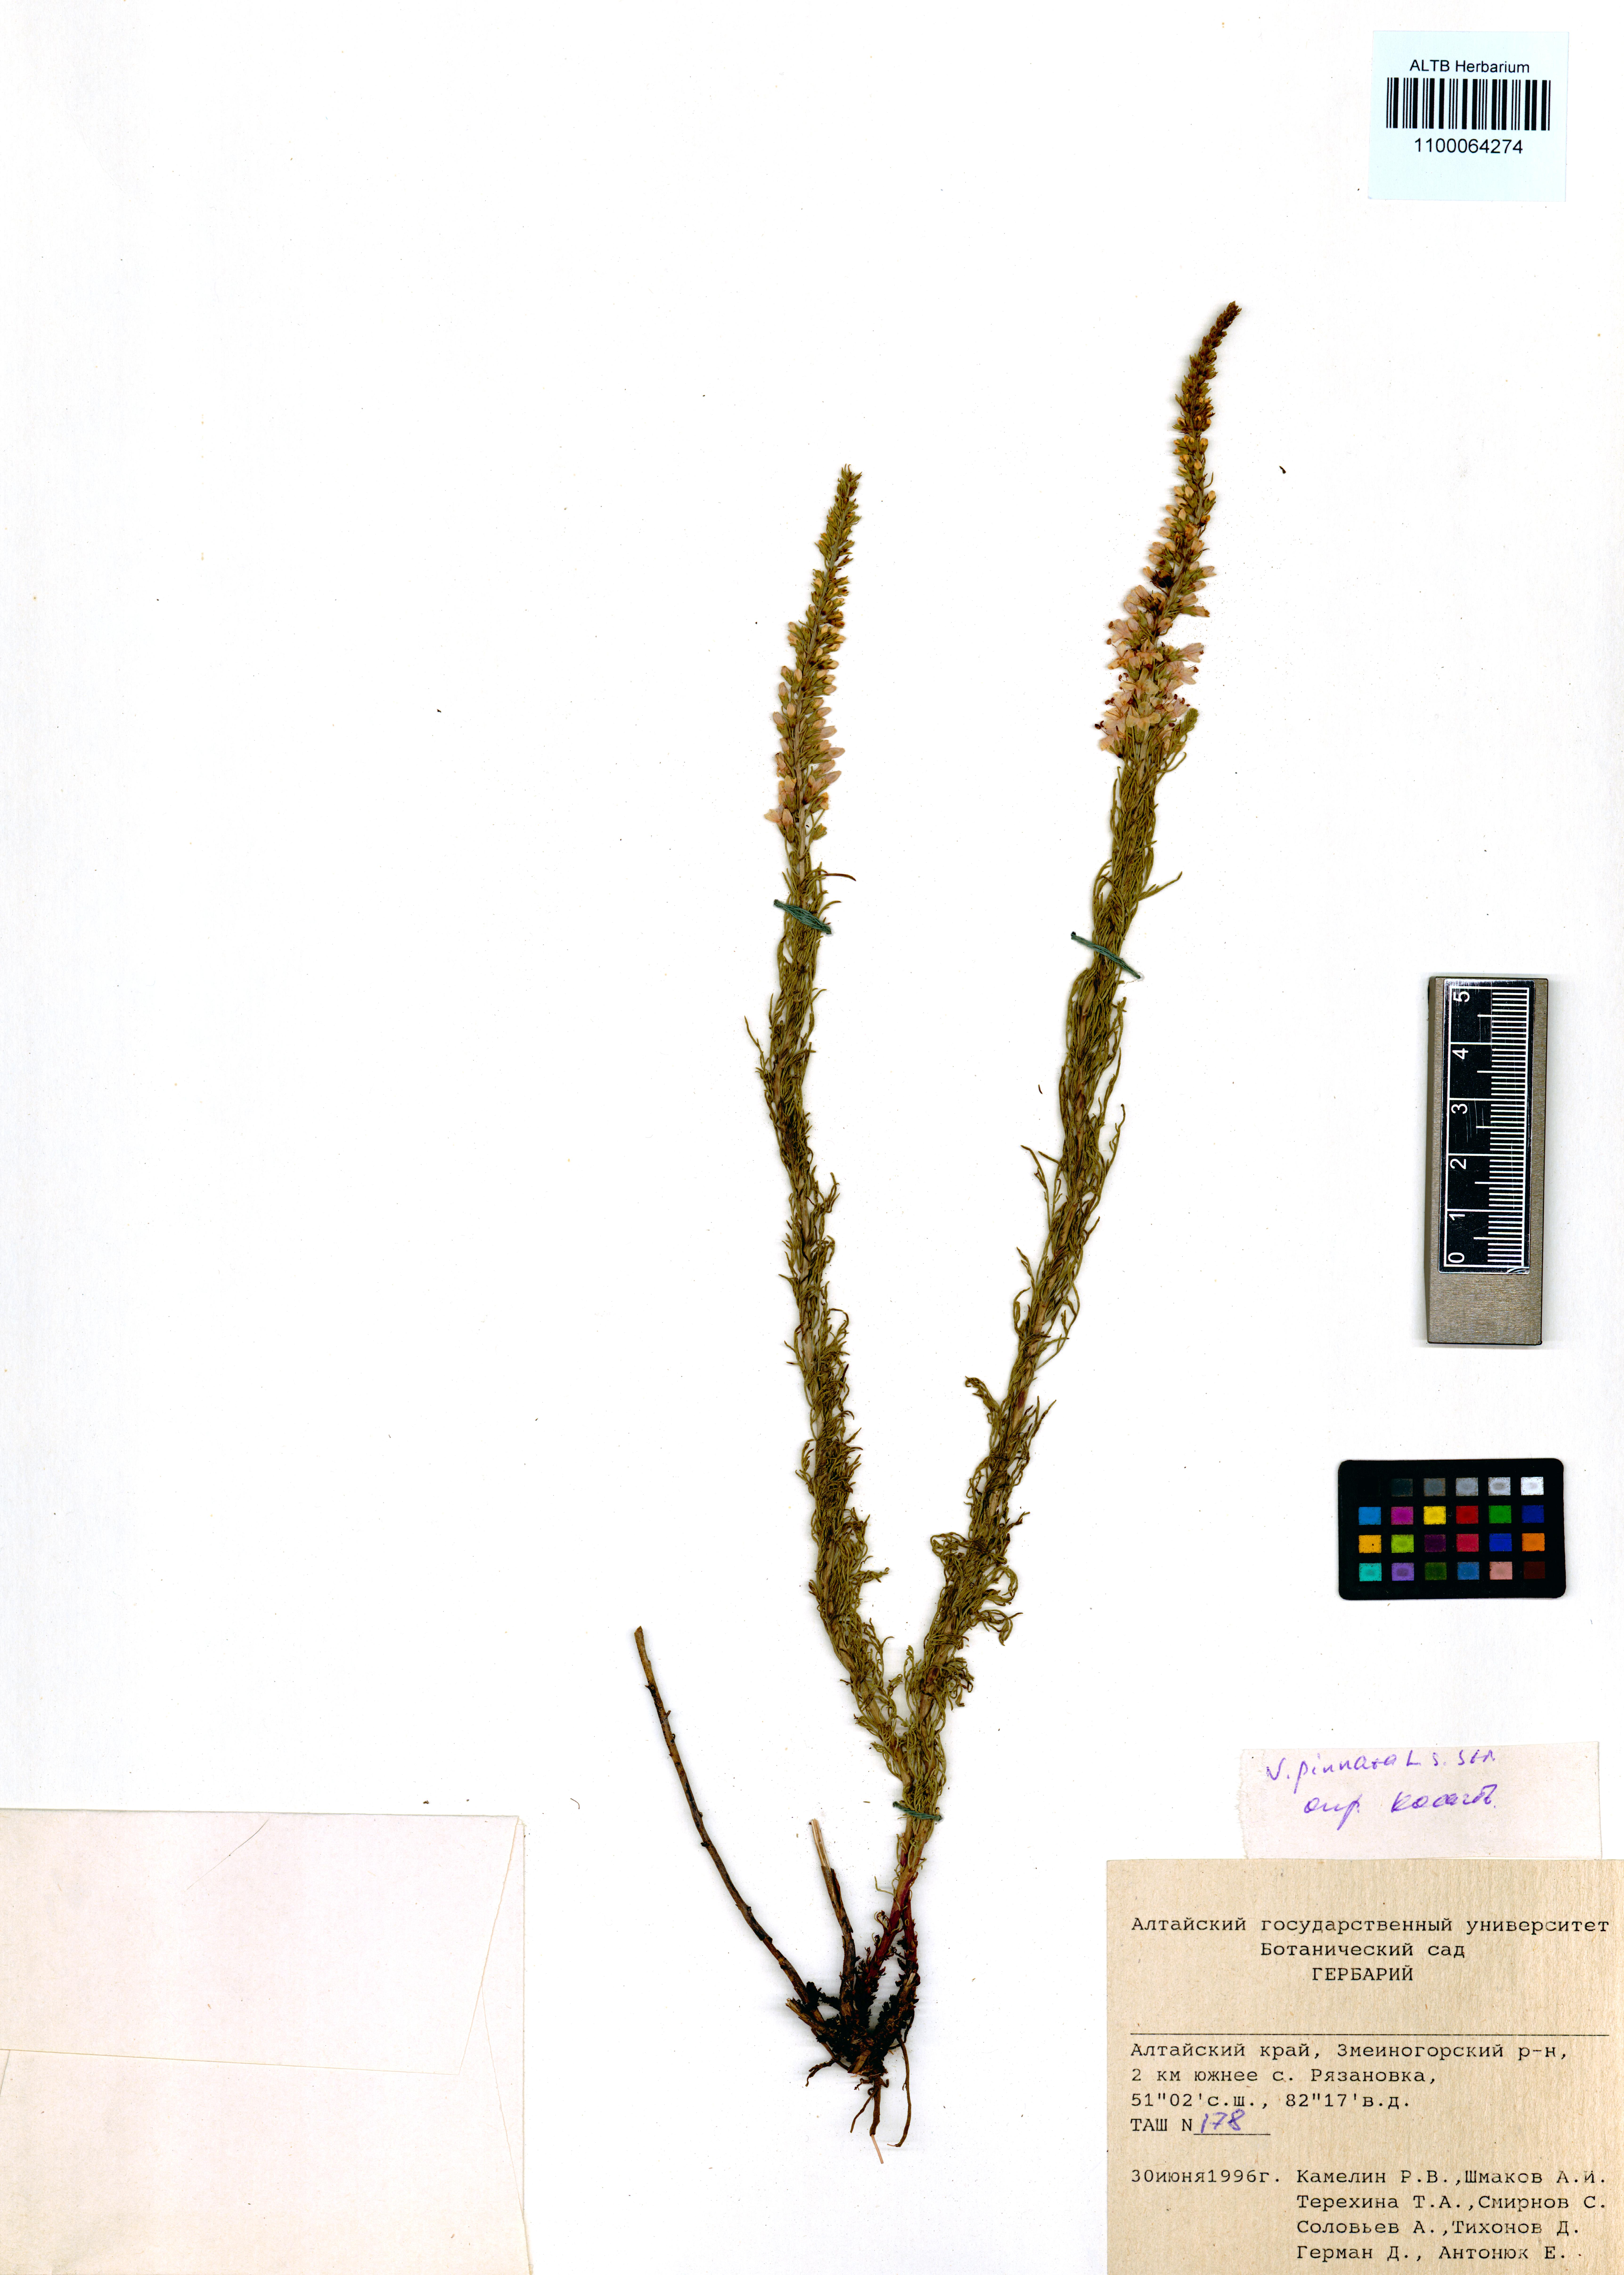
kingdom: Plantae
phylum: Tracheophyta
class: Magnoliopsida
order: Lamiales
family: Plantaginaceae
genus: Veronica
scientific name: Veronica pinnata
